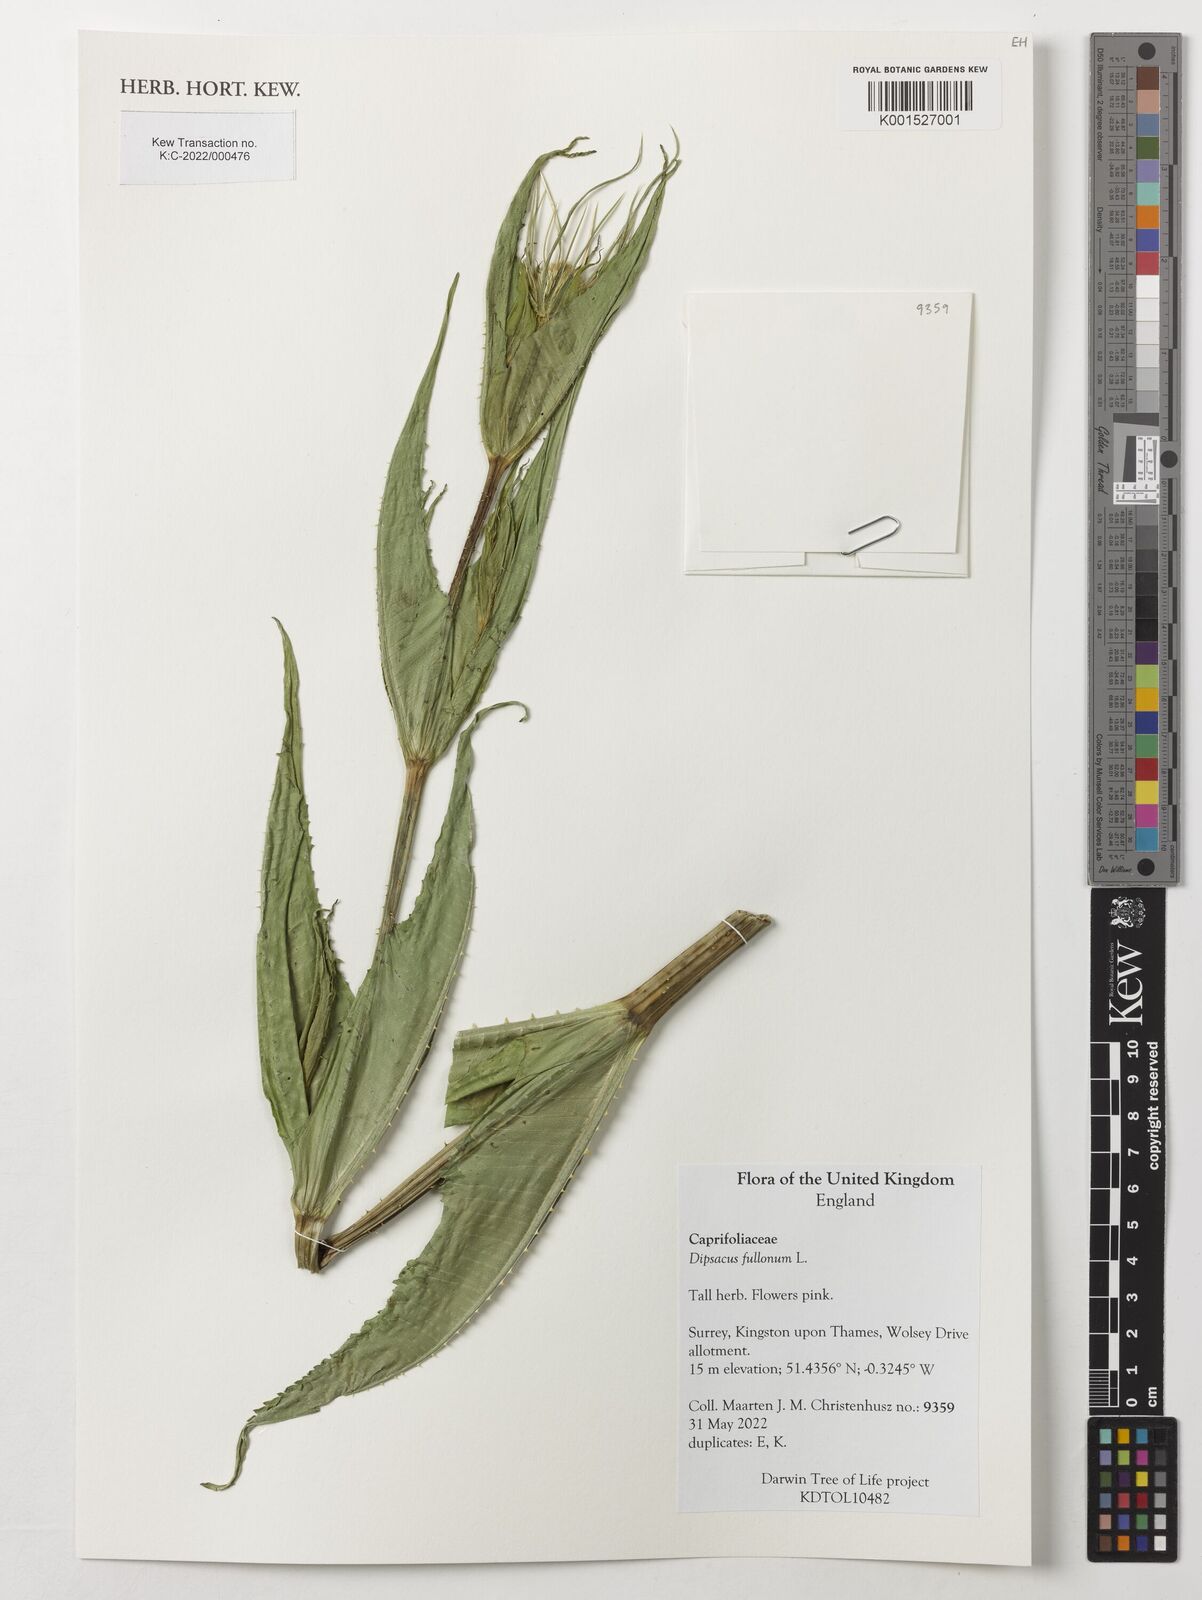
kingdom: Plantae
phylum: Tracheophyta
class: Magnoliopsida
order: Dipsacales
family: Caprifoliaceae
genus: Dipsacus
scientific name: Dipsacus fullonum
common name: Teasel
